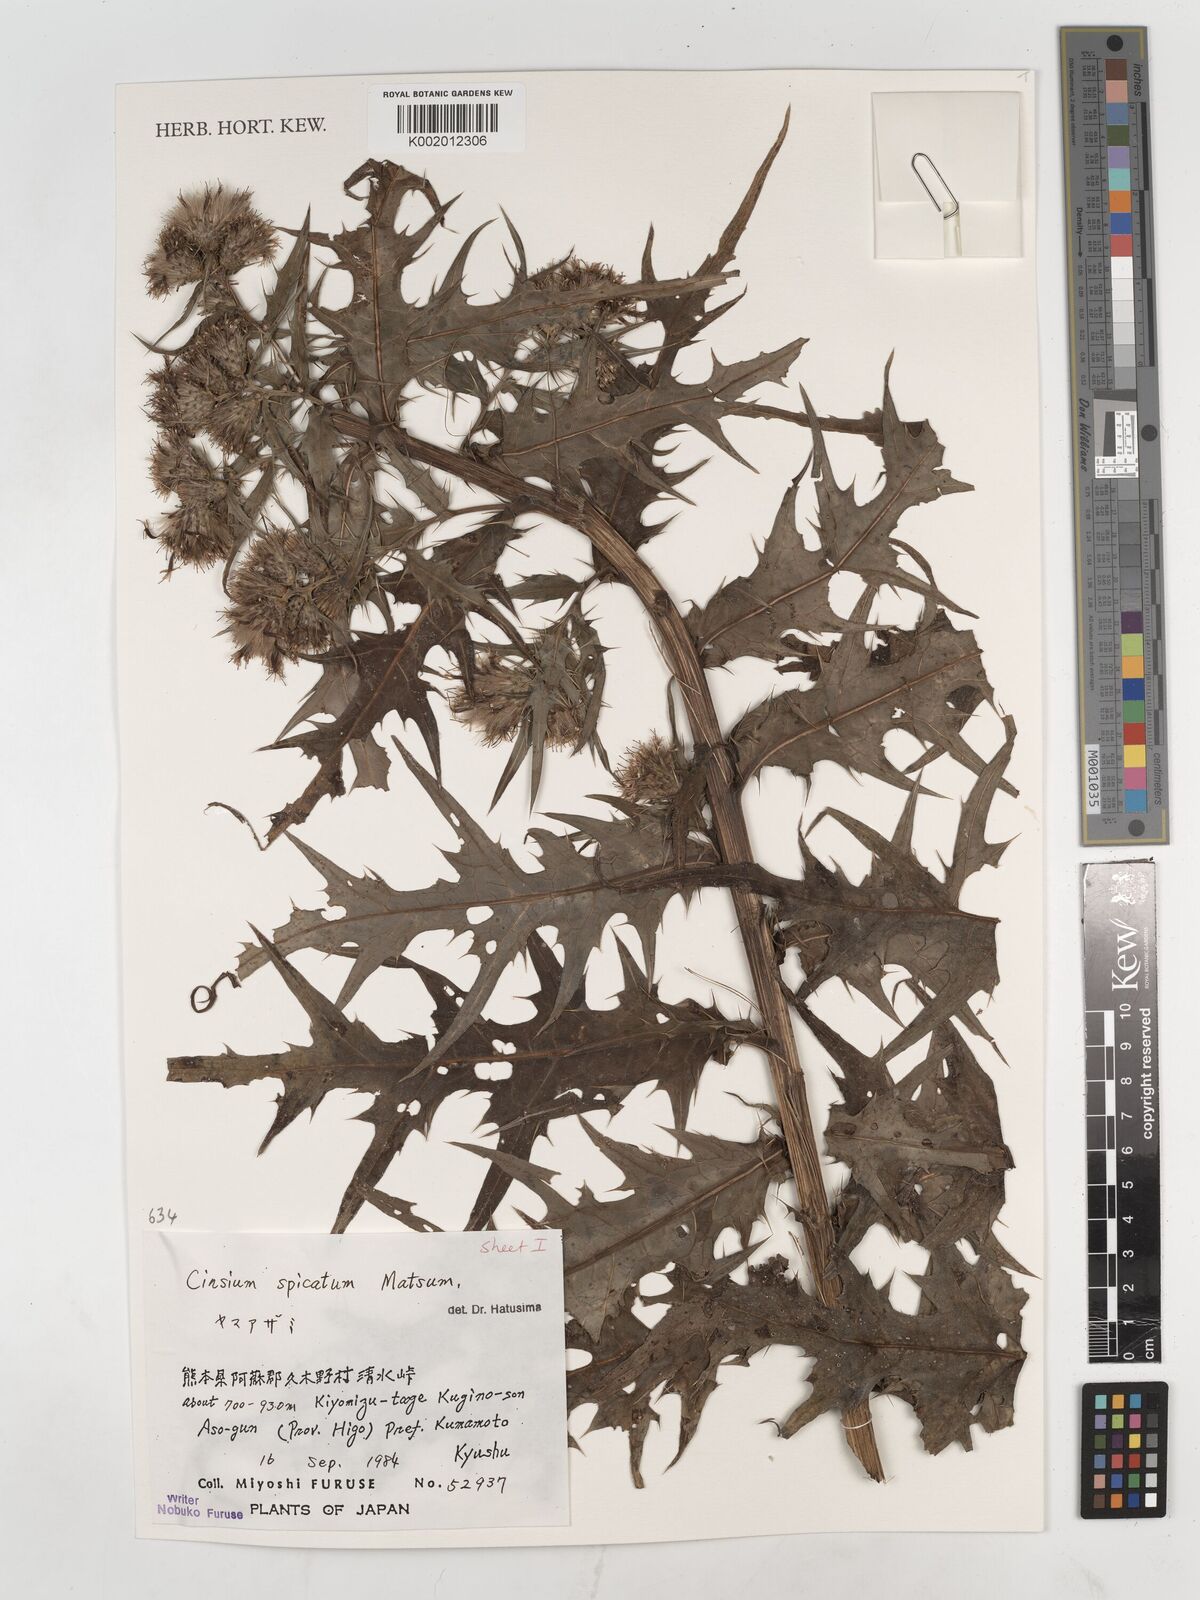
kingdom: Plantae
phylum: Tracheophyta
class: Magnoliopsida
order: Asterales
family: Asteraceae
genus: Cirsium
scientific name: Cirsium spicatum
